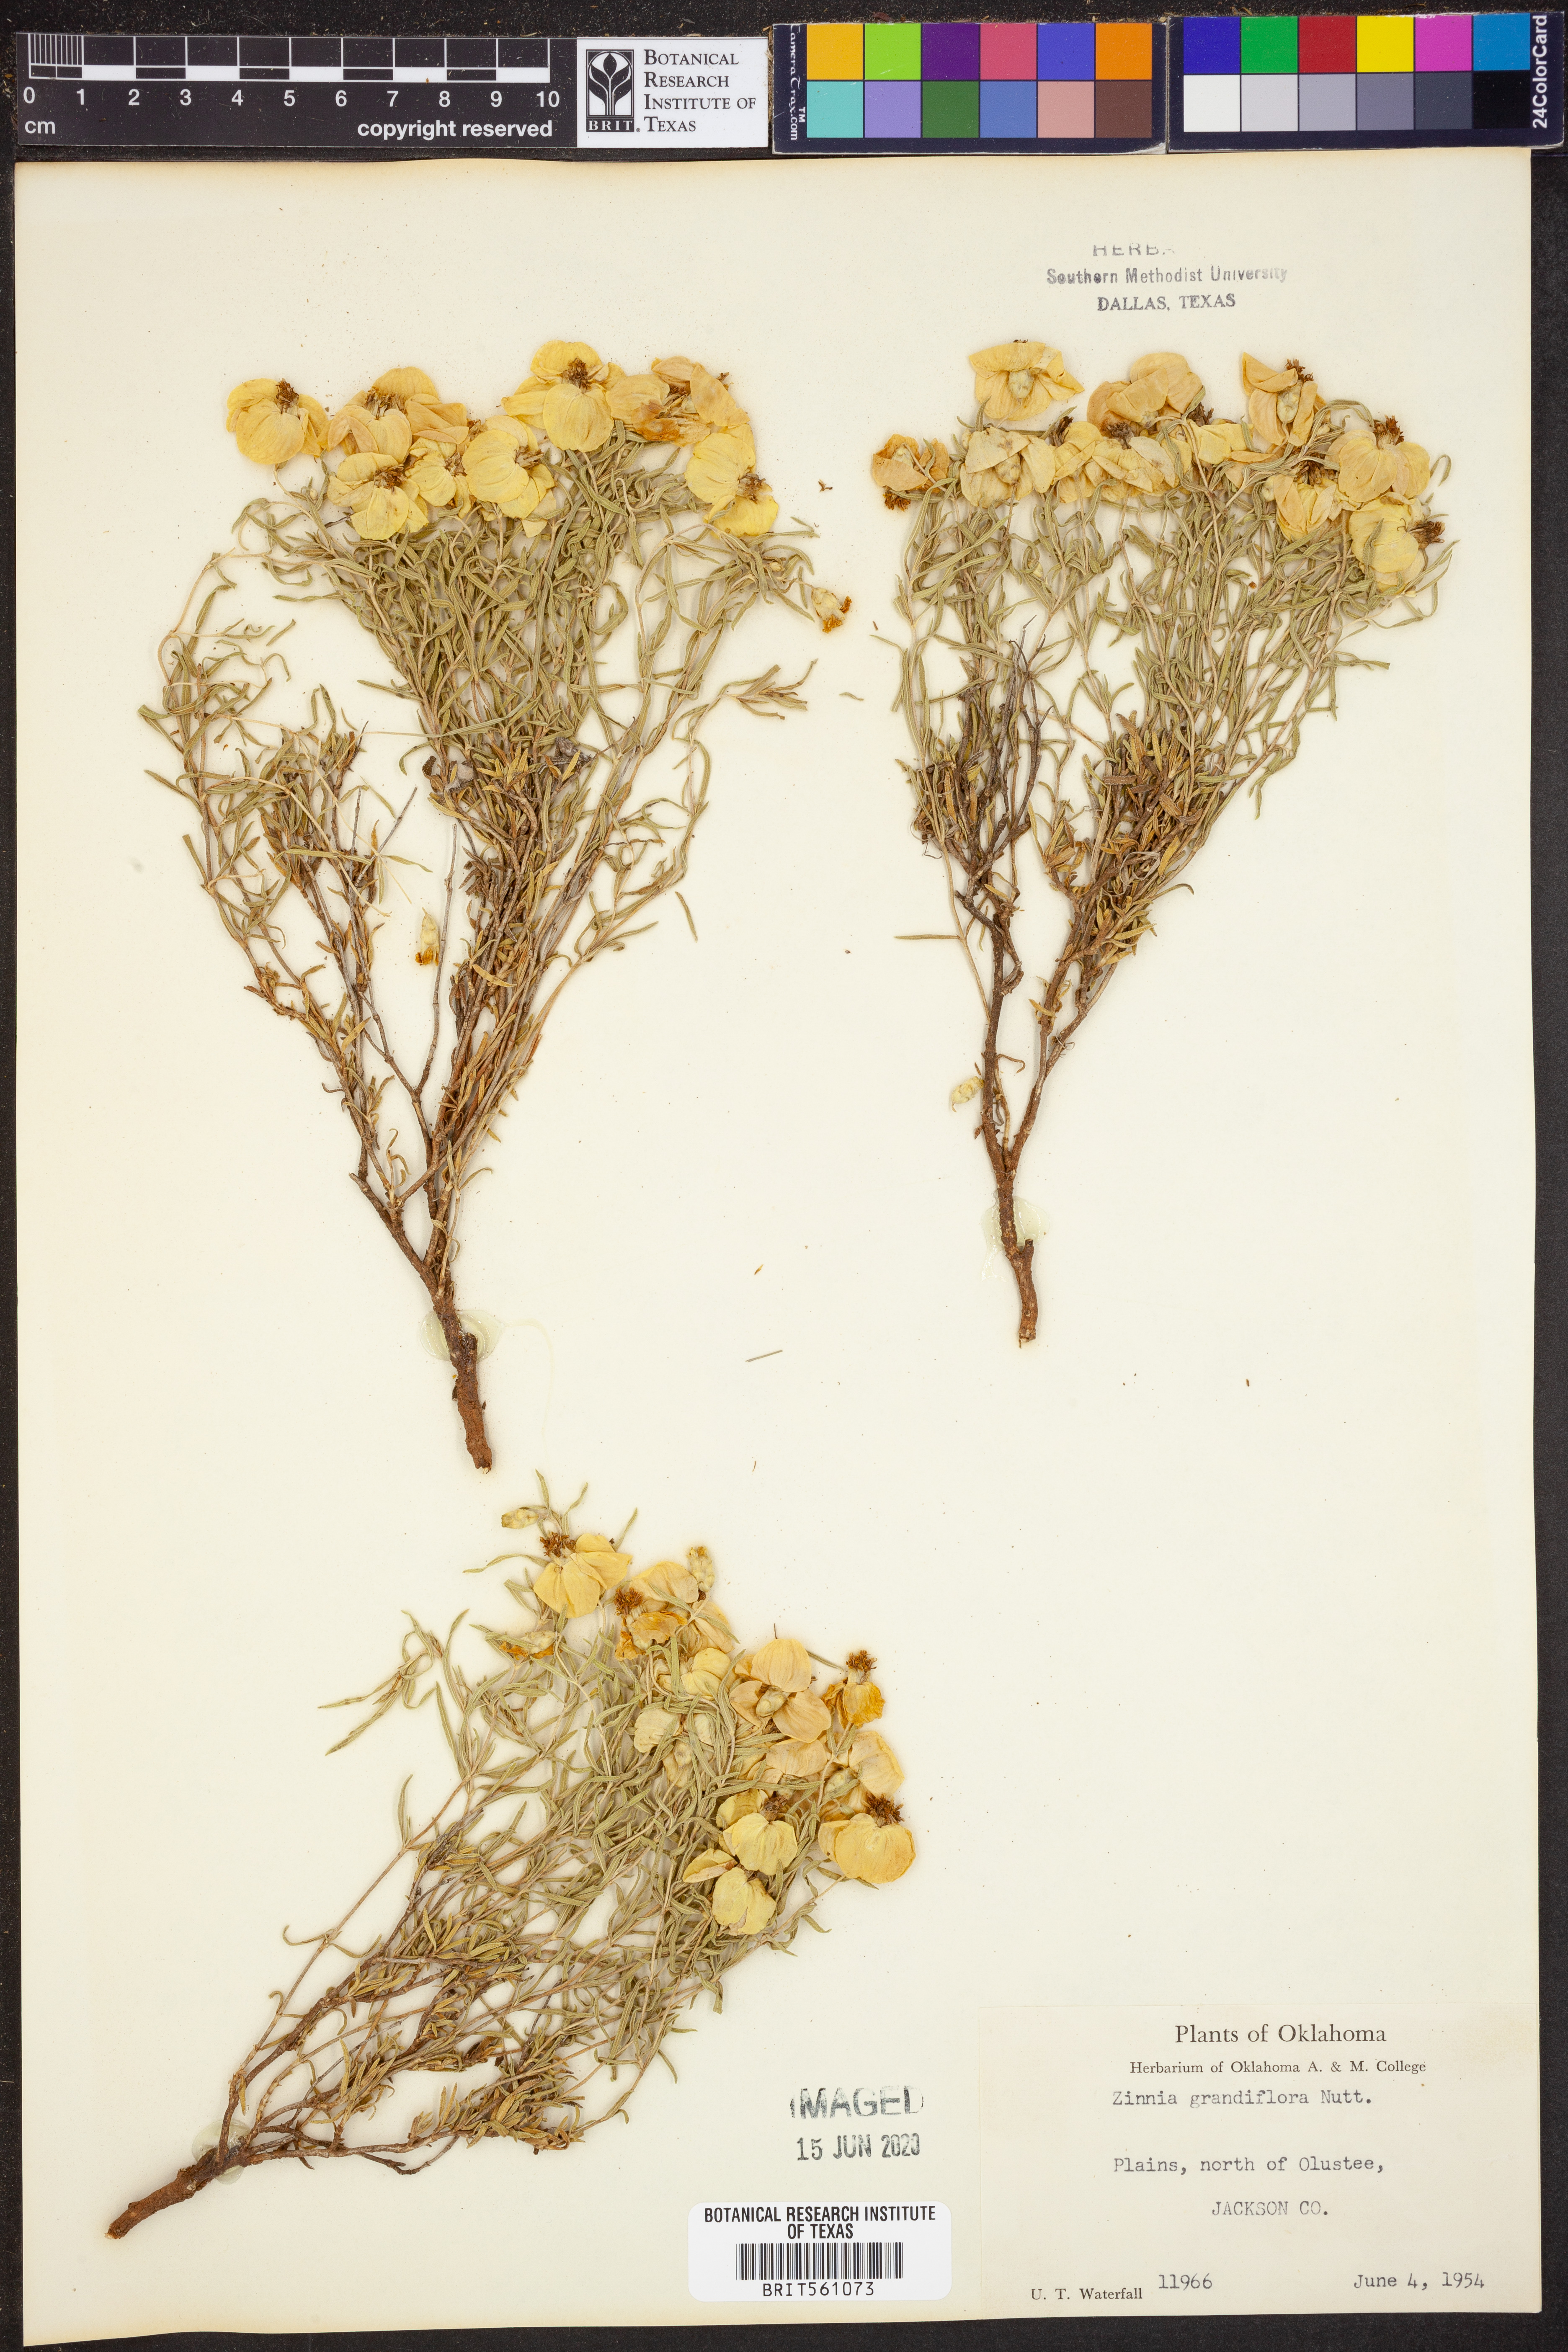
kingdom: Plantae
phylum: Tracheophyta
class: Magnoliopsida
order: Asterales
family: Asteraceae
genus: Zinnia
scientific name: Zinnia grandiflora
